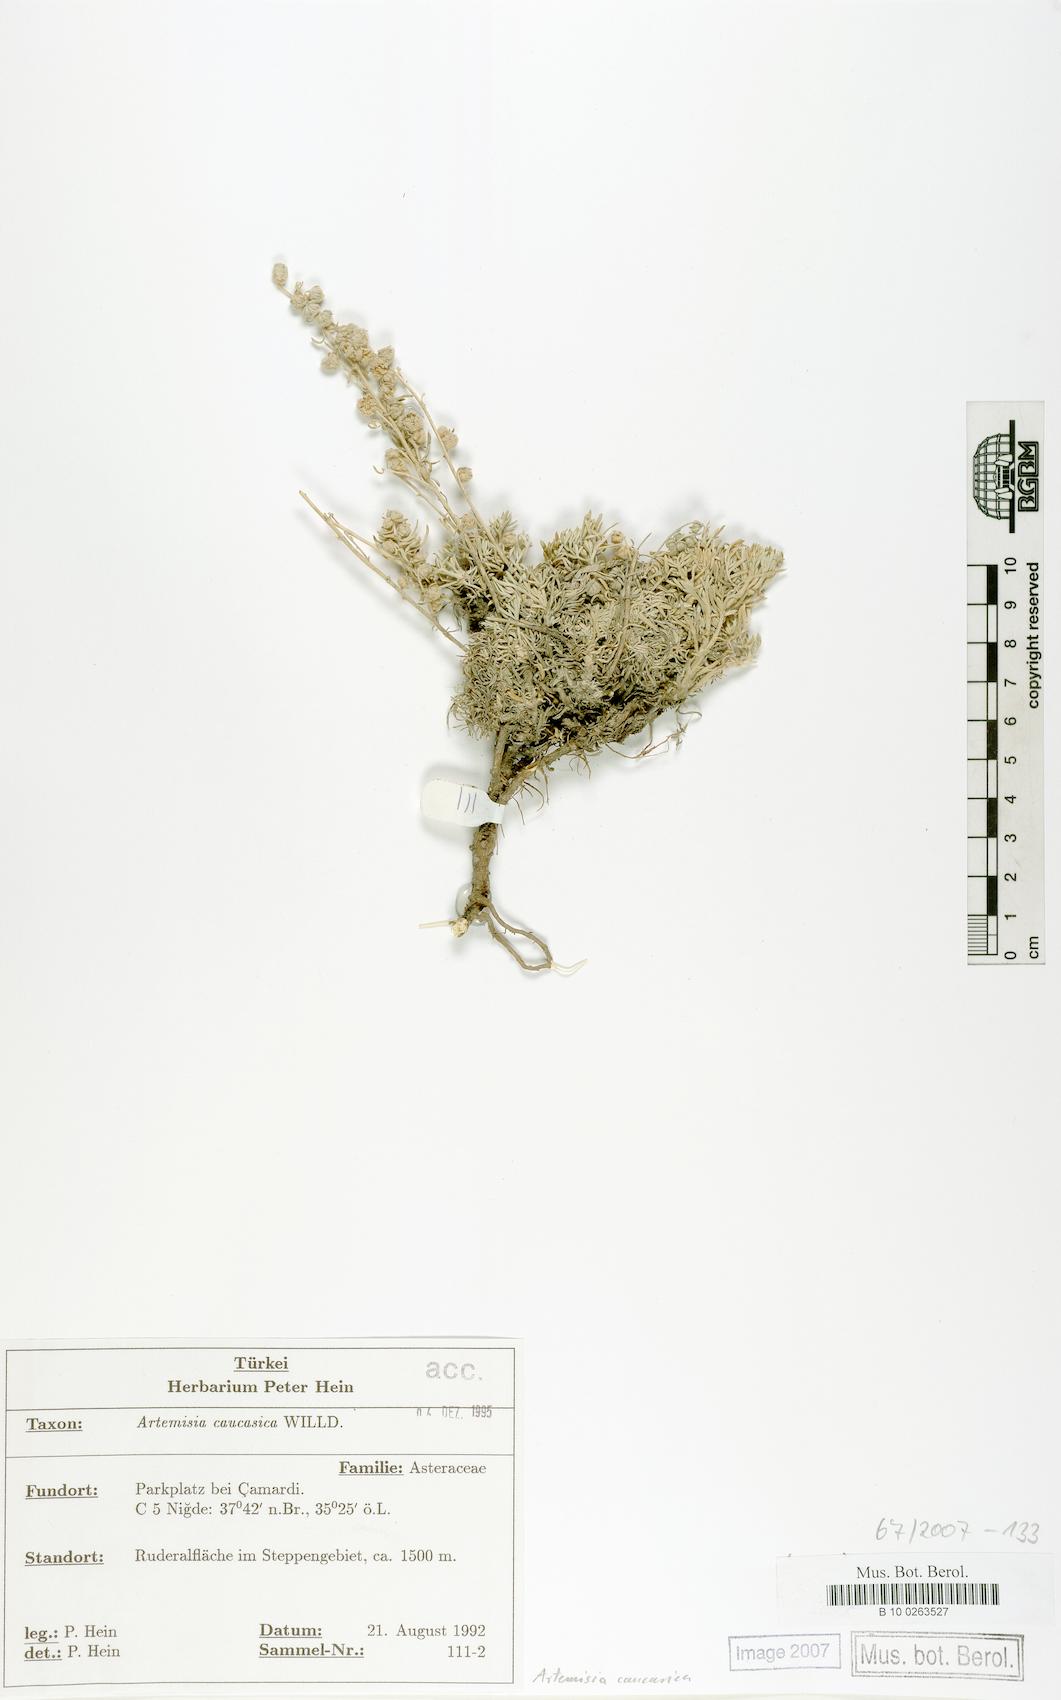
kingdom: Plantae
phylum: Tracheophyta
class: Magnoliopsida
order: Asterales
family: Asteraceae
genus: Artemisia
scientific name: Artemisia alpina
